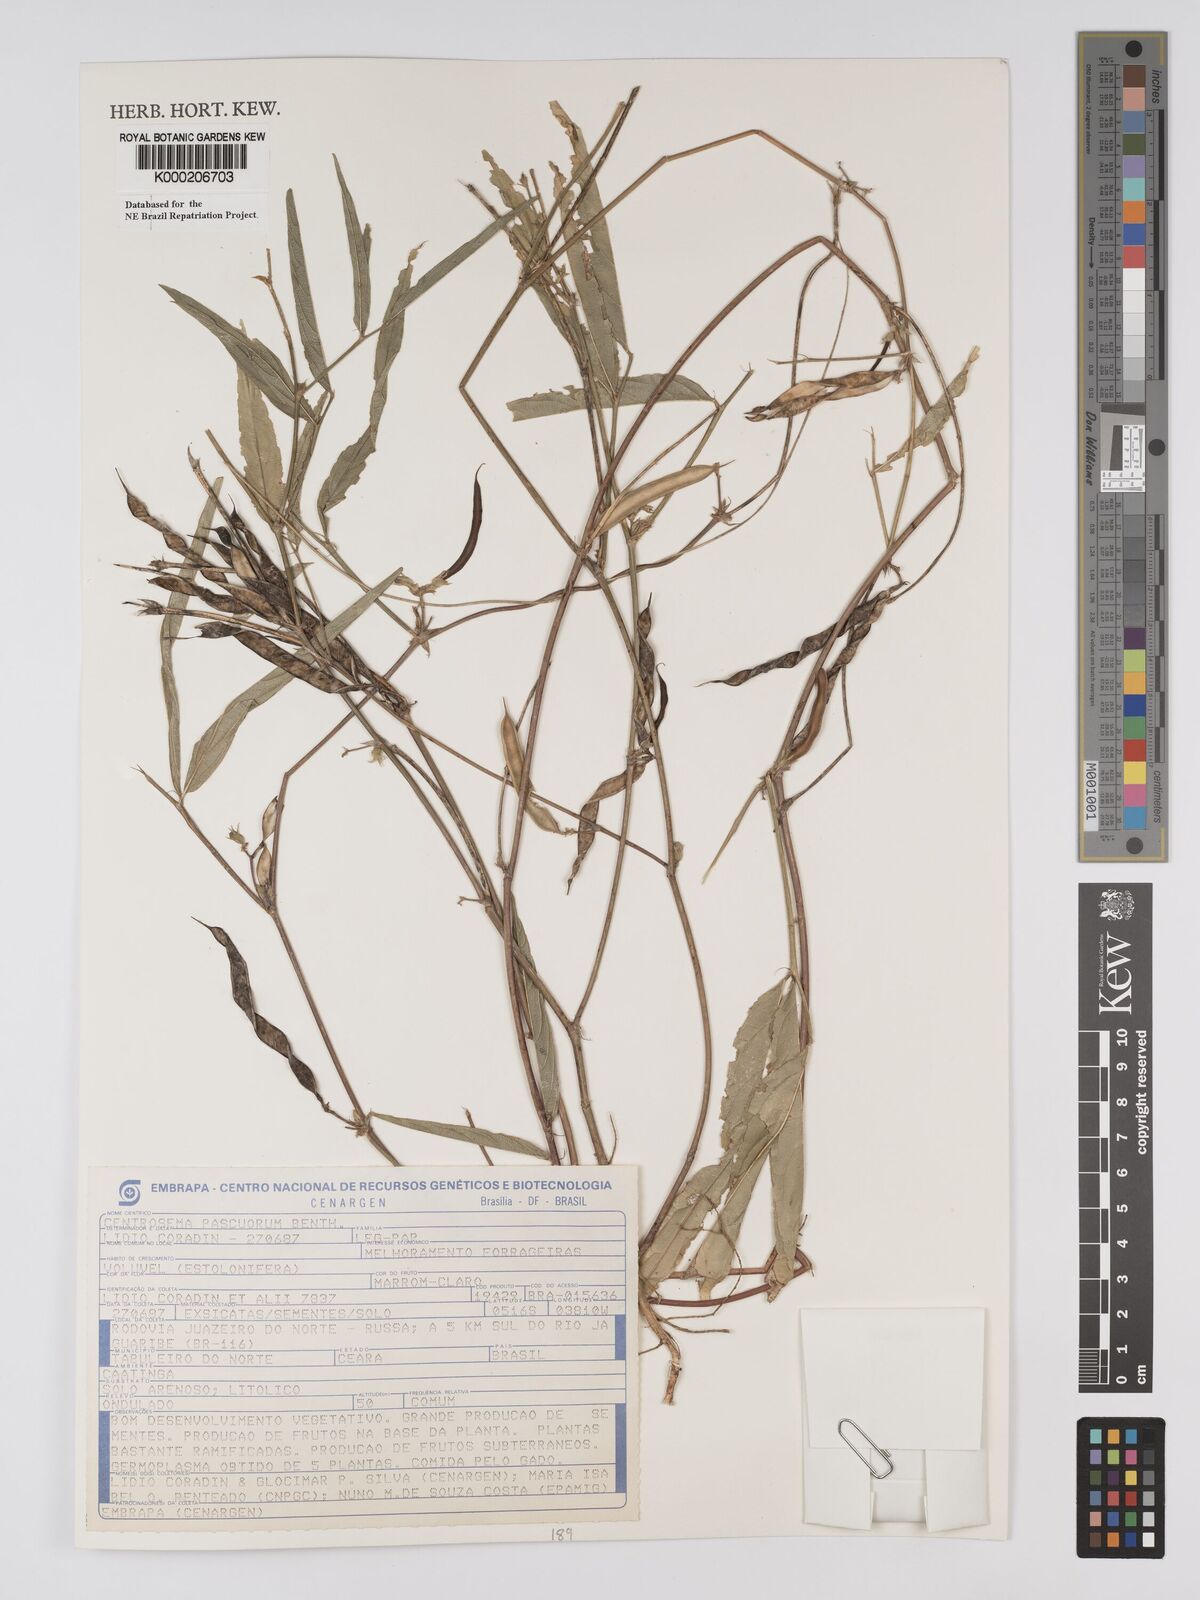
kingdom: Plantae
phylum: Tracheophyta
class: Magnoliopsida
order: Fabales
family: Fabaceae
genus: Centrosema
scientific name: Centrosema pascuorum
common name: Centurion
